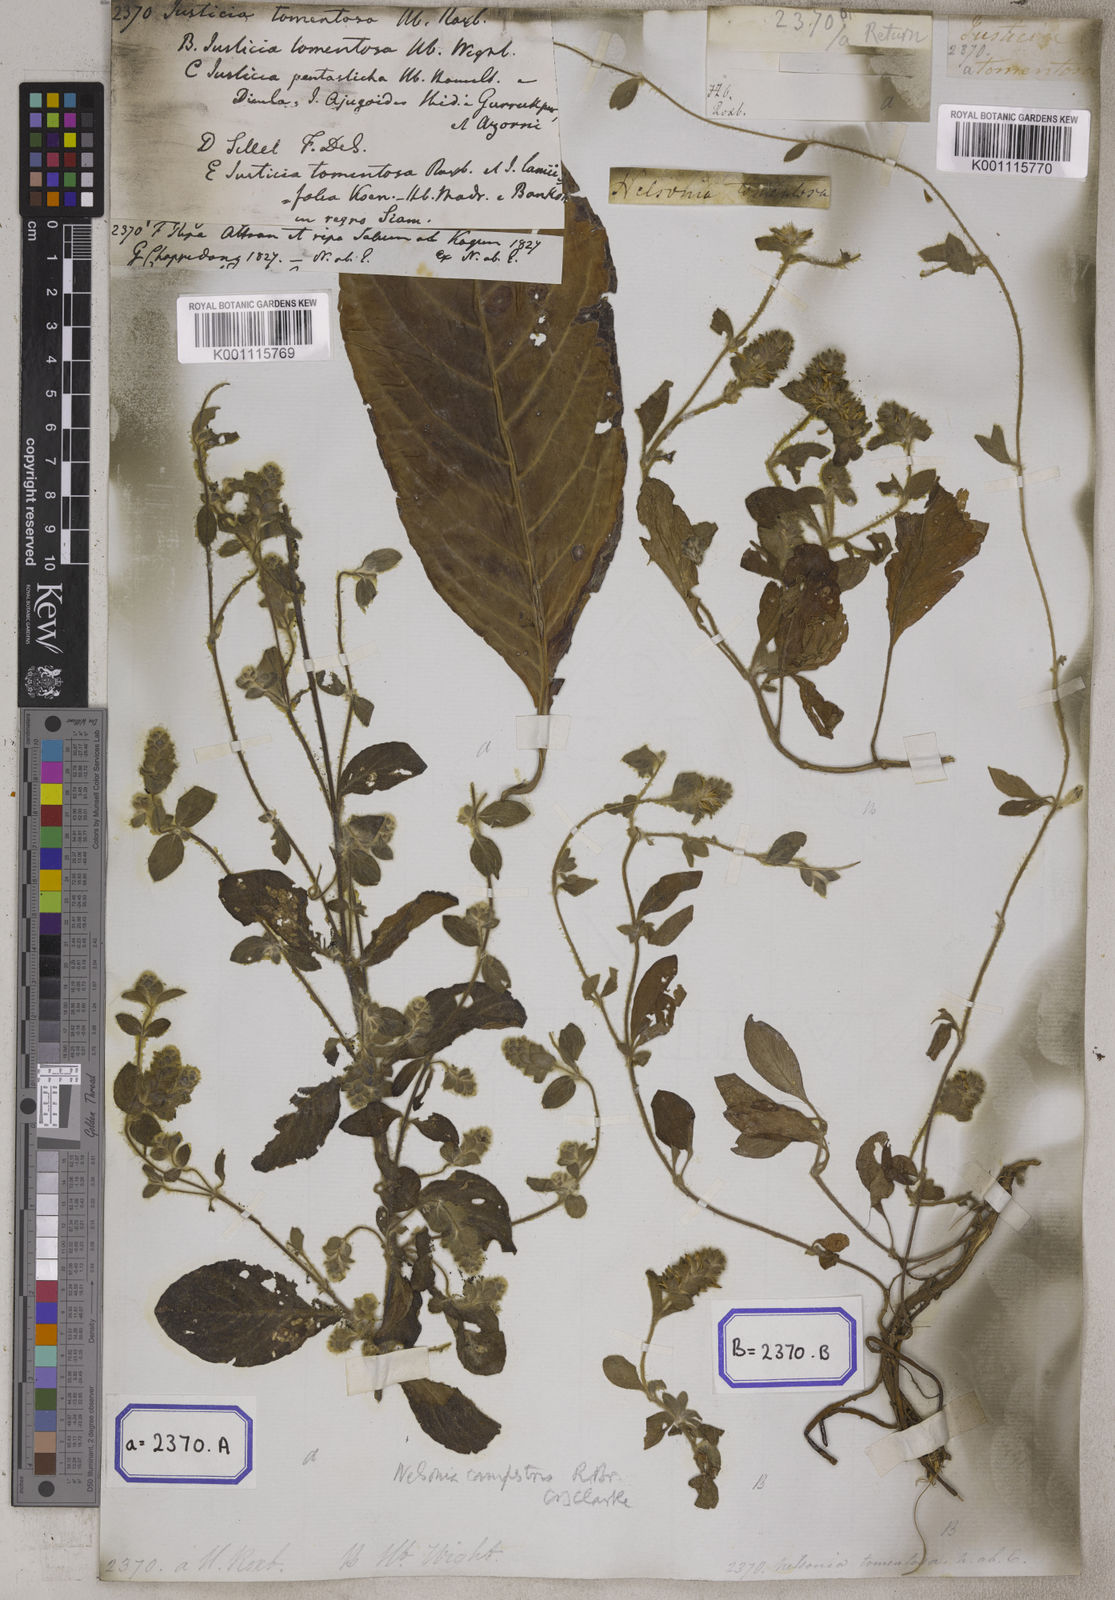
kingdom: Plantae
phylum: Tracheophyta
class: Magnoliopsida
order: Lamiales
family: Acanthaceae
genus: Nelsonia
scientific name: Nelsonia canescens
